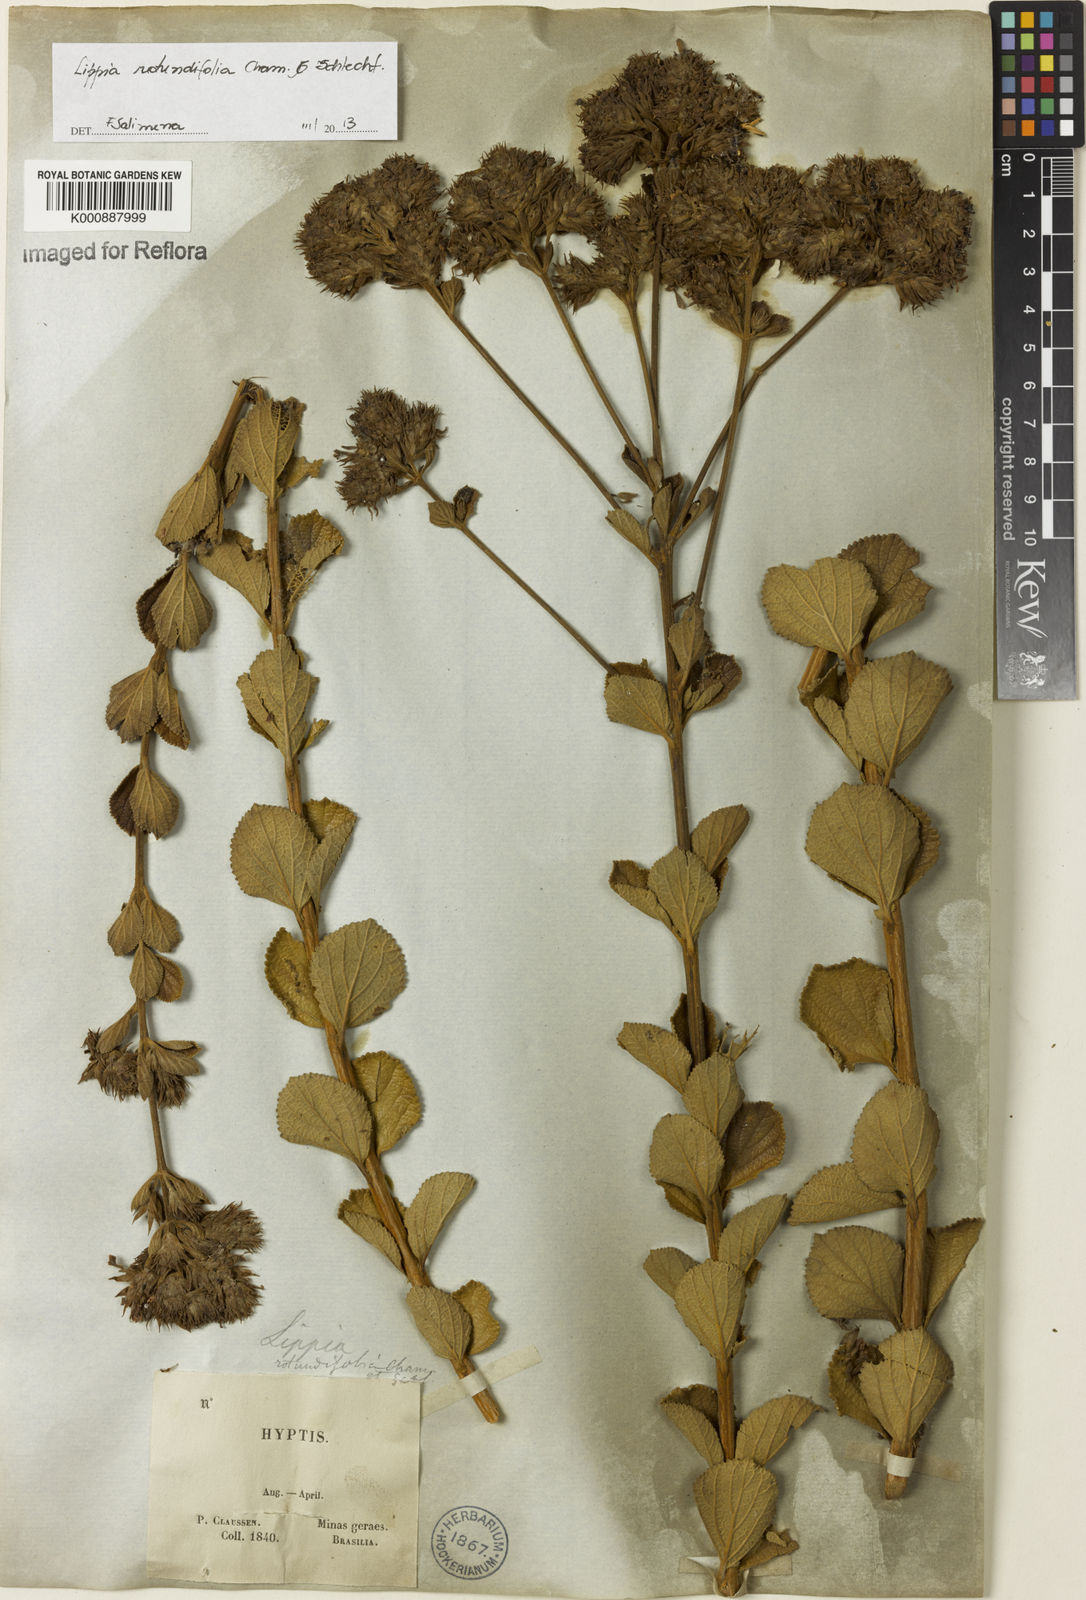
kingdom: Plantae
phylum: Tracheophyta
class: Magnoliopsida
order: Lamiales
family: Verbenaceae
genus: Lippia
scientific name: Lippia rotundifolia
